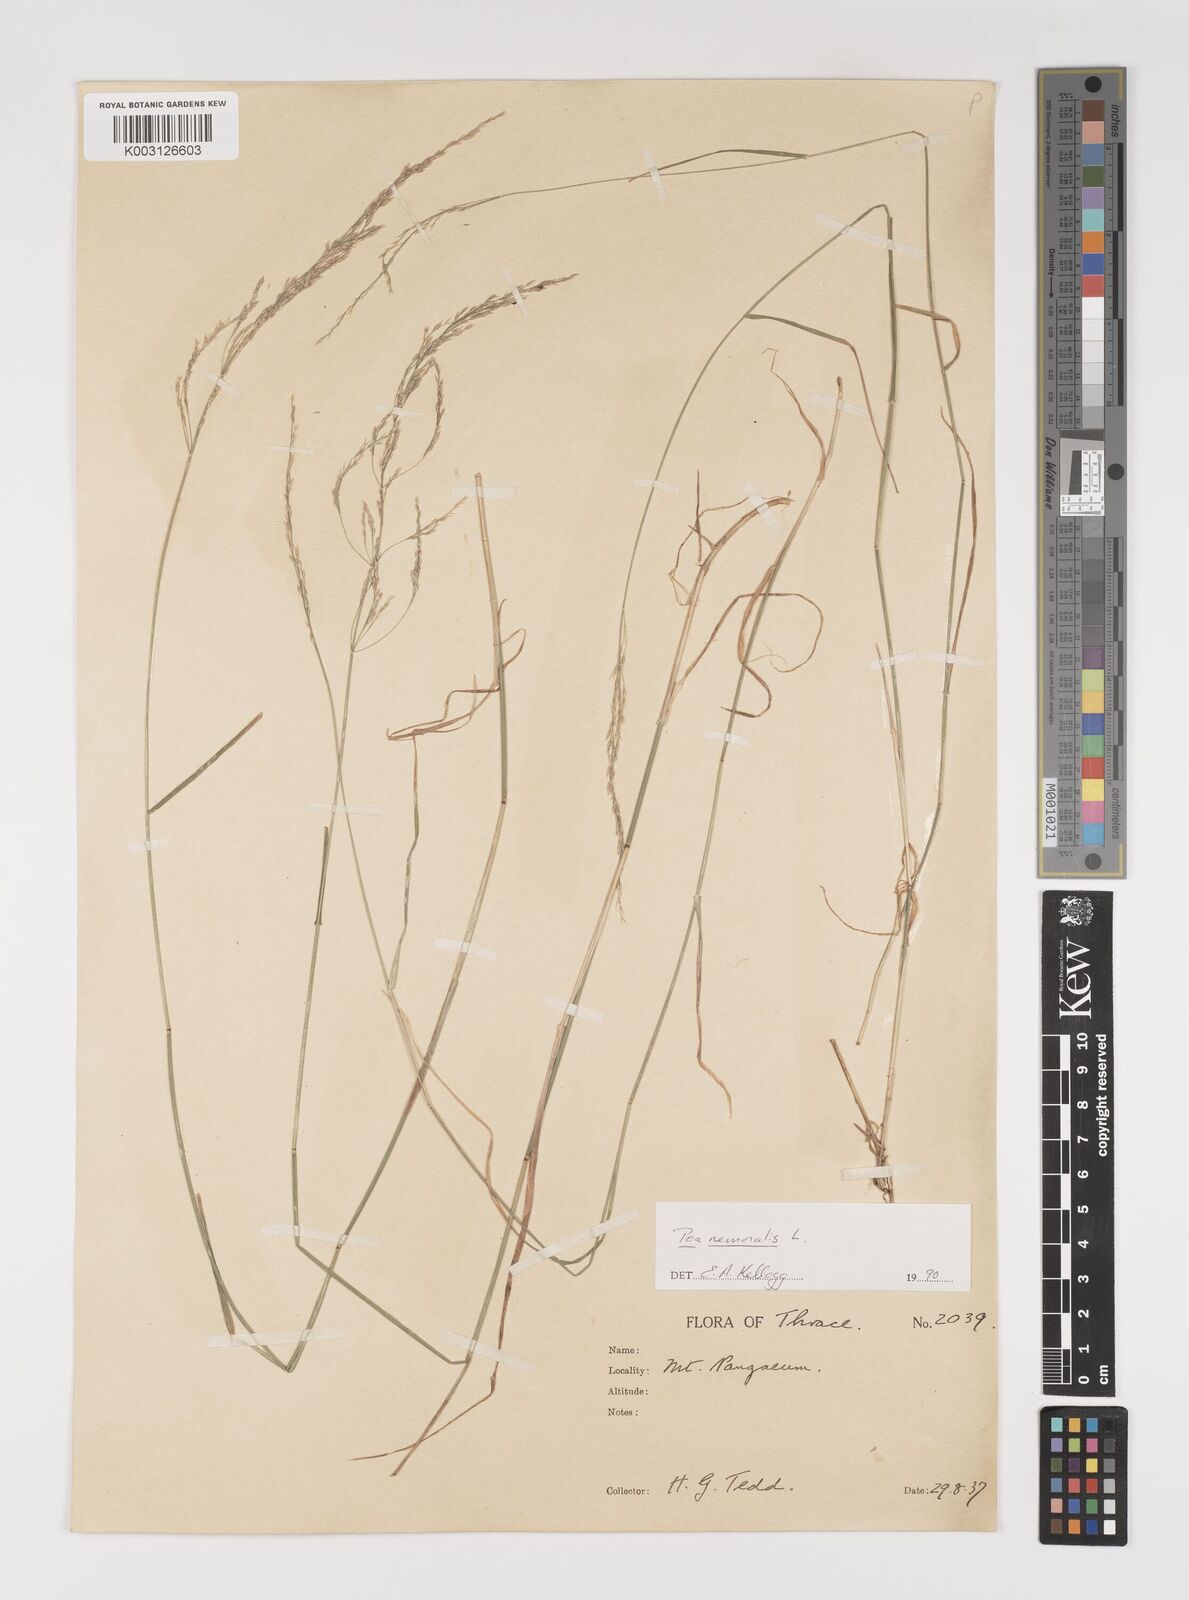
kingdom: Plantae
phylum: Tracheophyta
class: Liliopsida
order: Poales
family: Poaceae
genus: Poa
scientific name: Poa nemoralis
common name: Wood bluegrass
